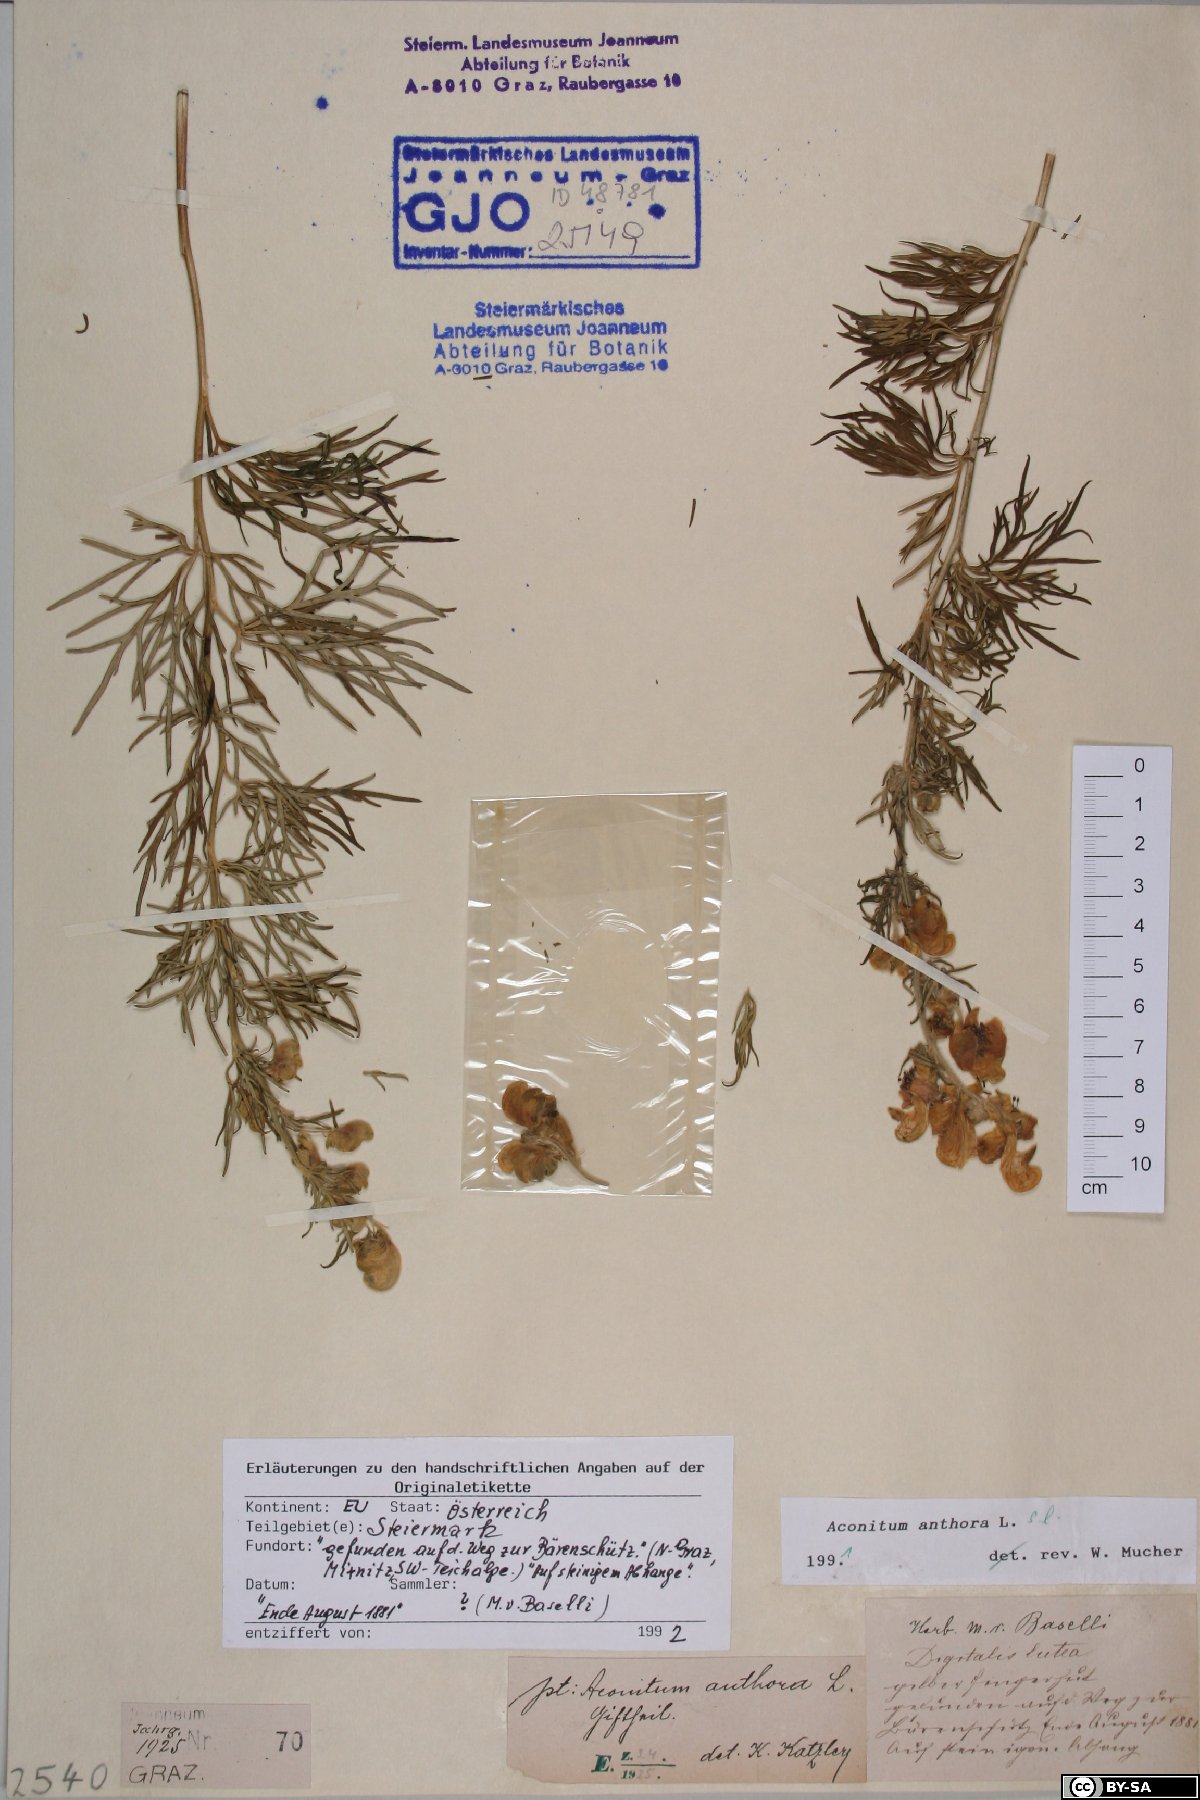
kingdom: Plantae
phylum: Tracheophyta
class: Magnoliopsida
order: Ranunculales
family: Ranunculaceae
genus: Aconitum
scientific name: Aconitum anthora
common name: Yellow monkshood
